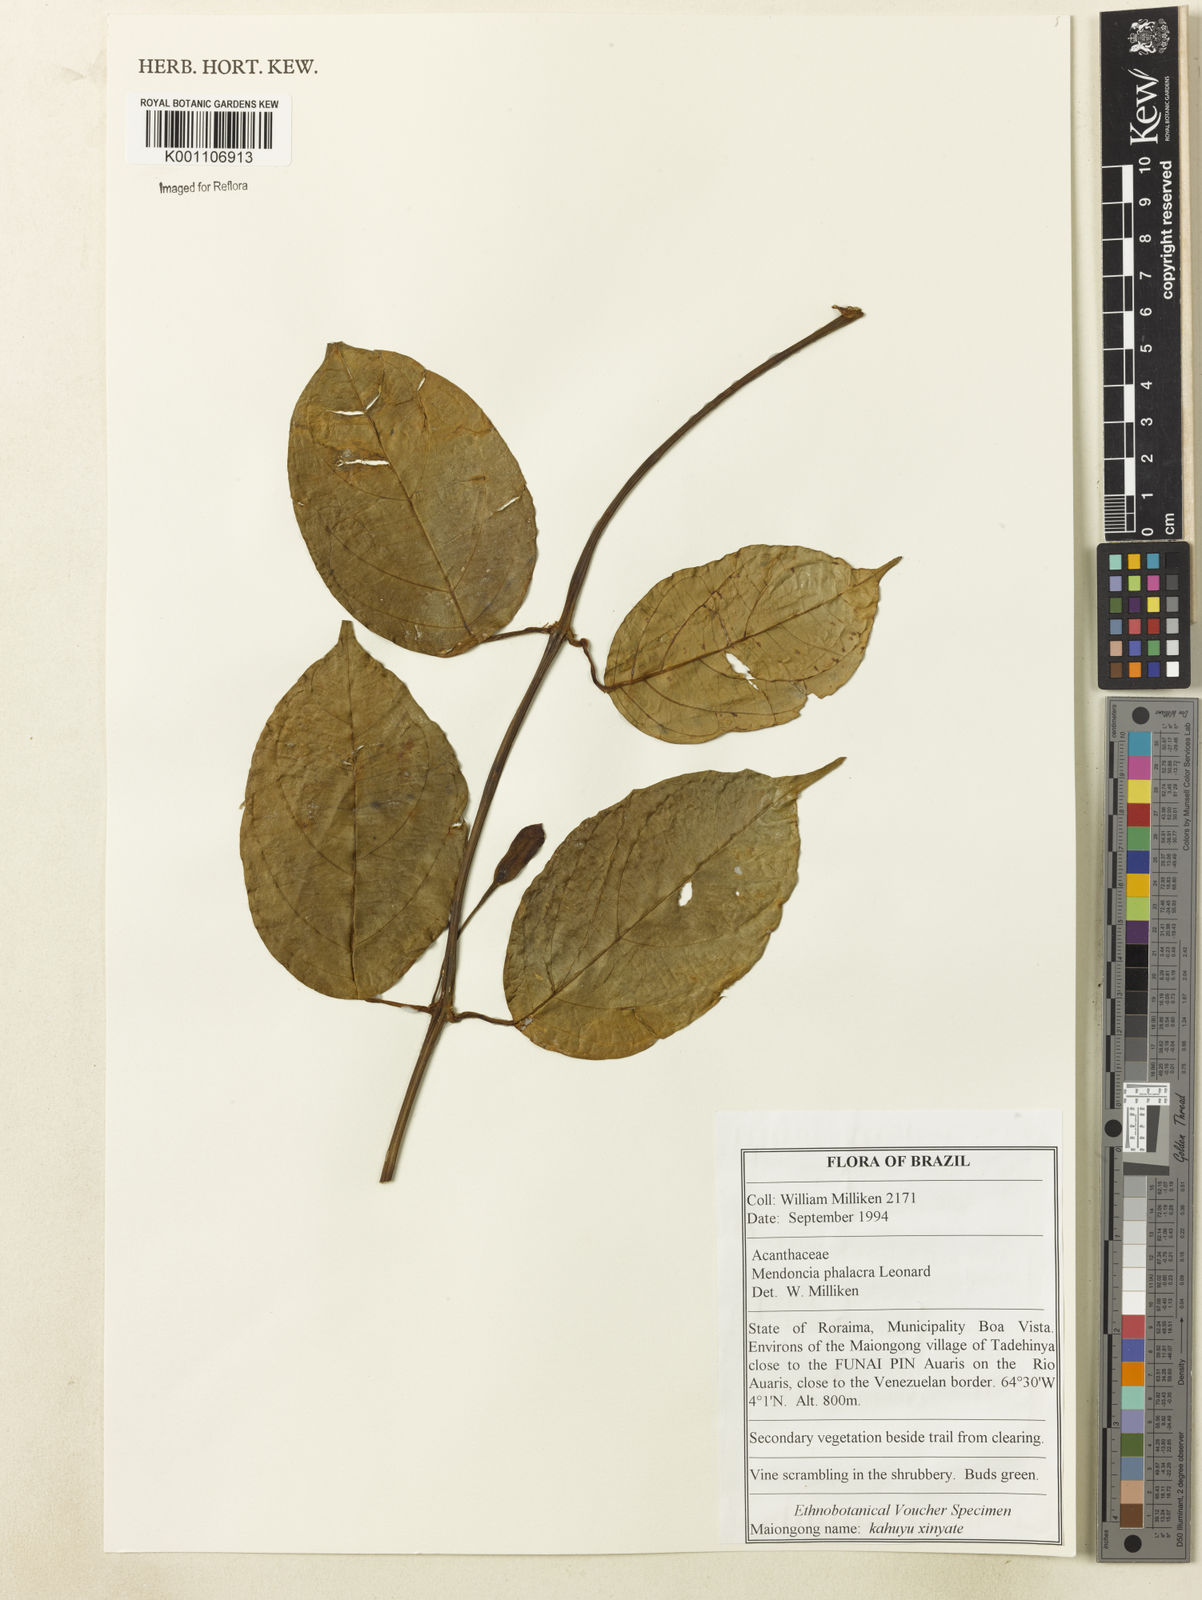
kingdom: Plantae
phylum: Tracheophyta
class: Magnoliopsida
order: Lamiales
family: Acanthaceae
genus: Mendoncia
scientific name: Mendoncia pedunculata
